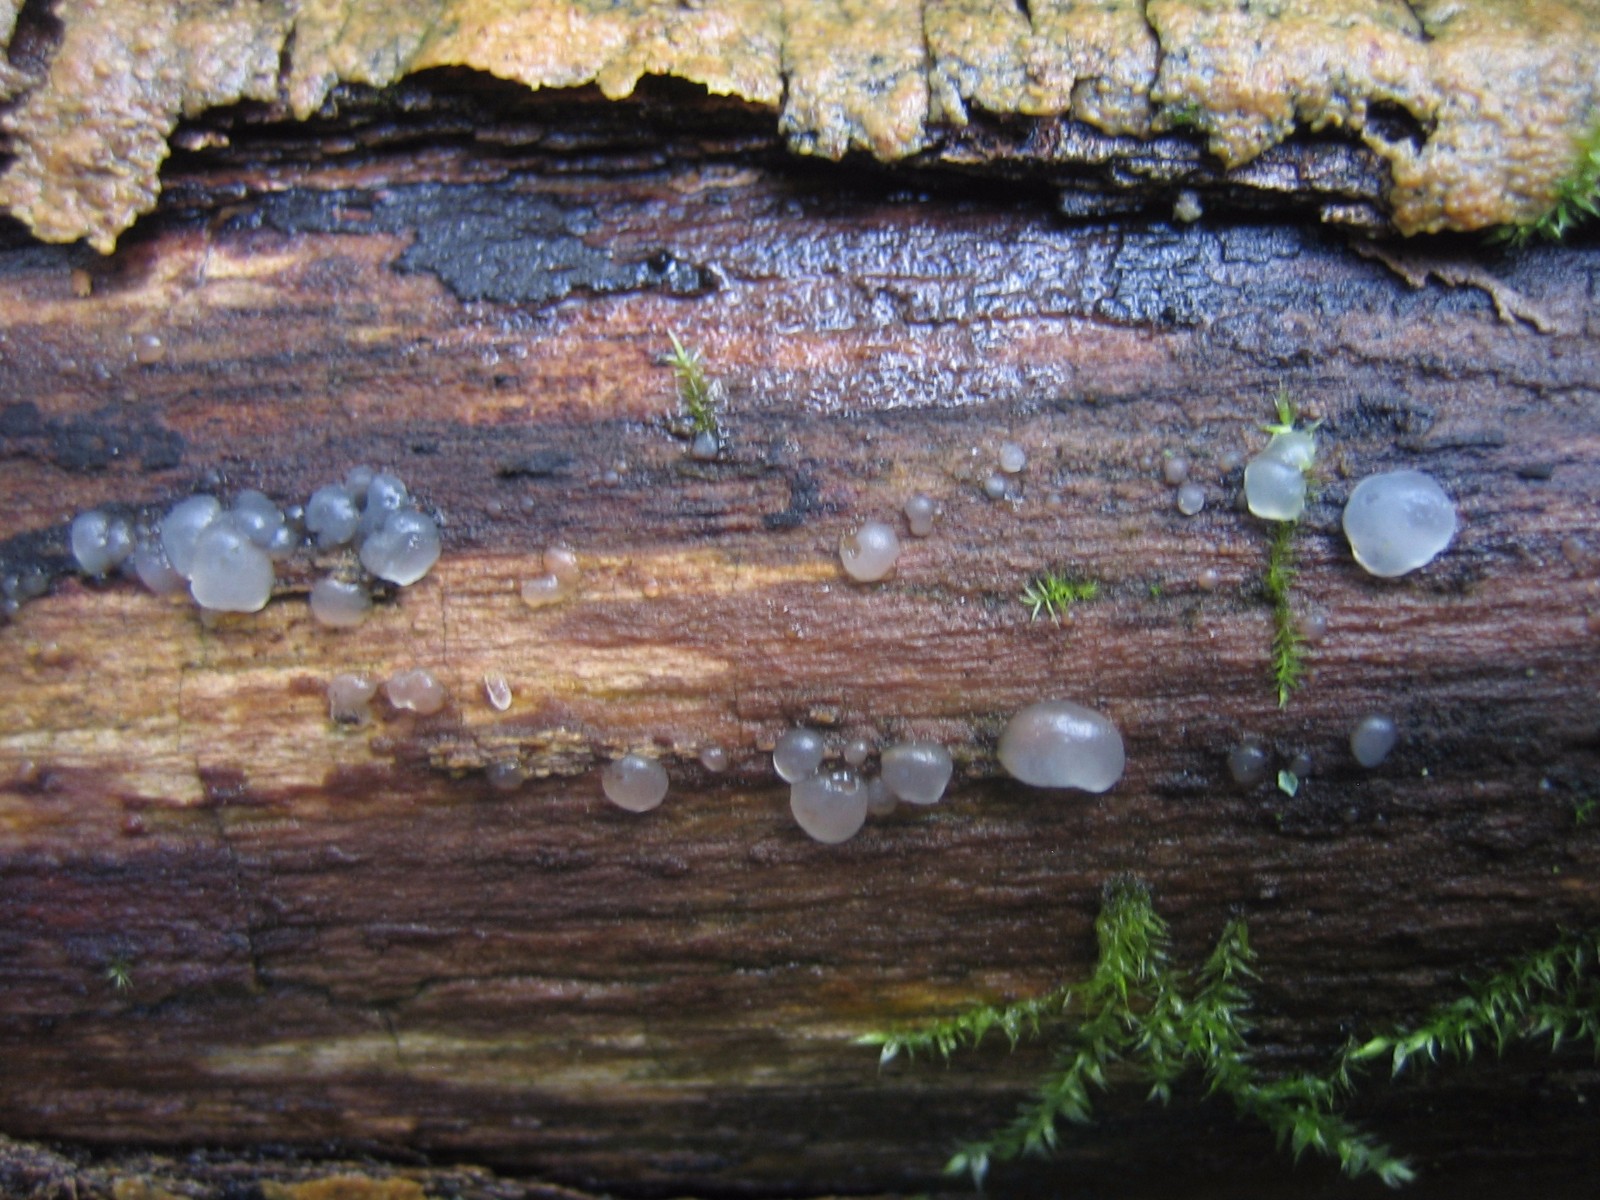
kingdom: Fungi
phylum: Basidiomycota
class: Agaricomycetes
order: Auriculariales
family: Hyaloriaceae
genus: Myxarium
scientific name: Myxarium nucleatum
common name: klar bævretop
